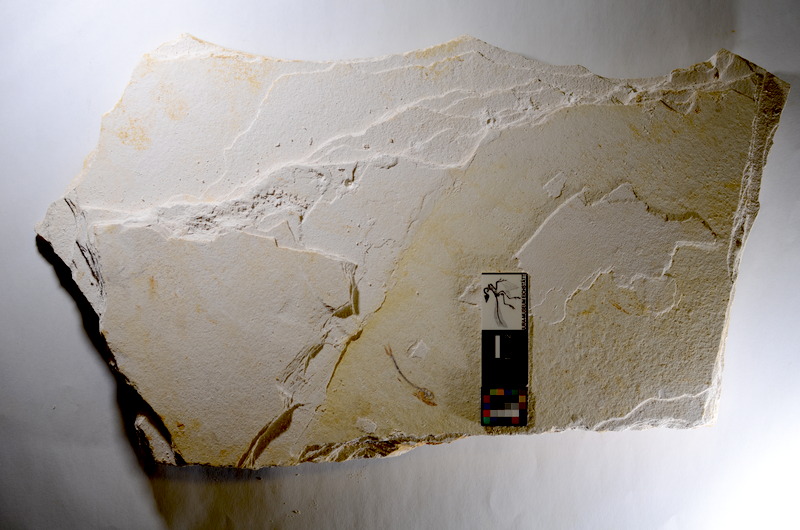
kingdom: Animalia
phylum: Chordata
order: Salmoniformes
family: Orthogonikleithridae
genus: Orthogonikleithrus
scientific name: Orthogonikleithrus hoelli
